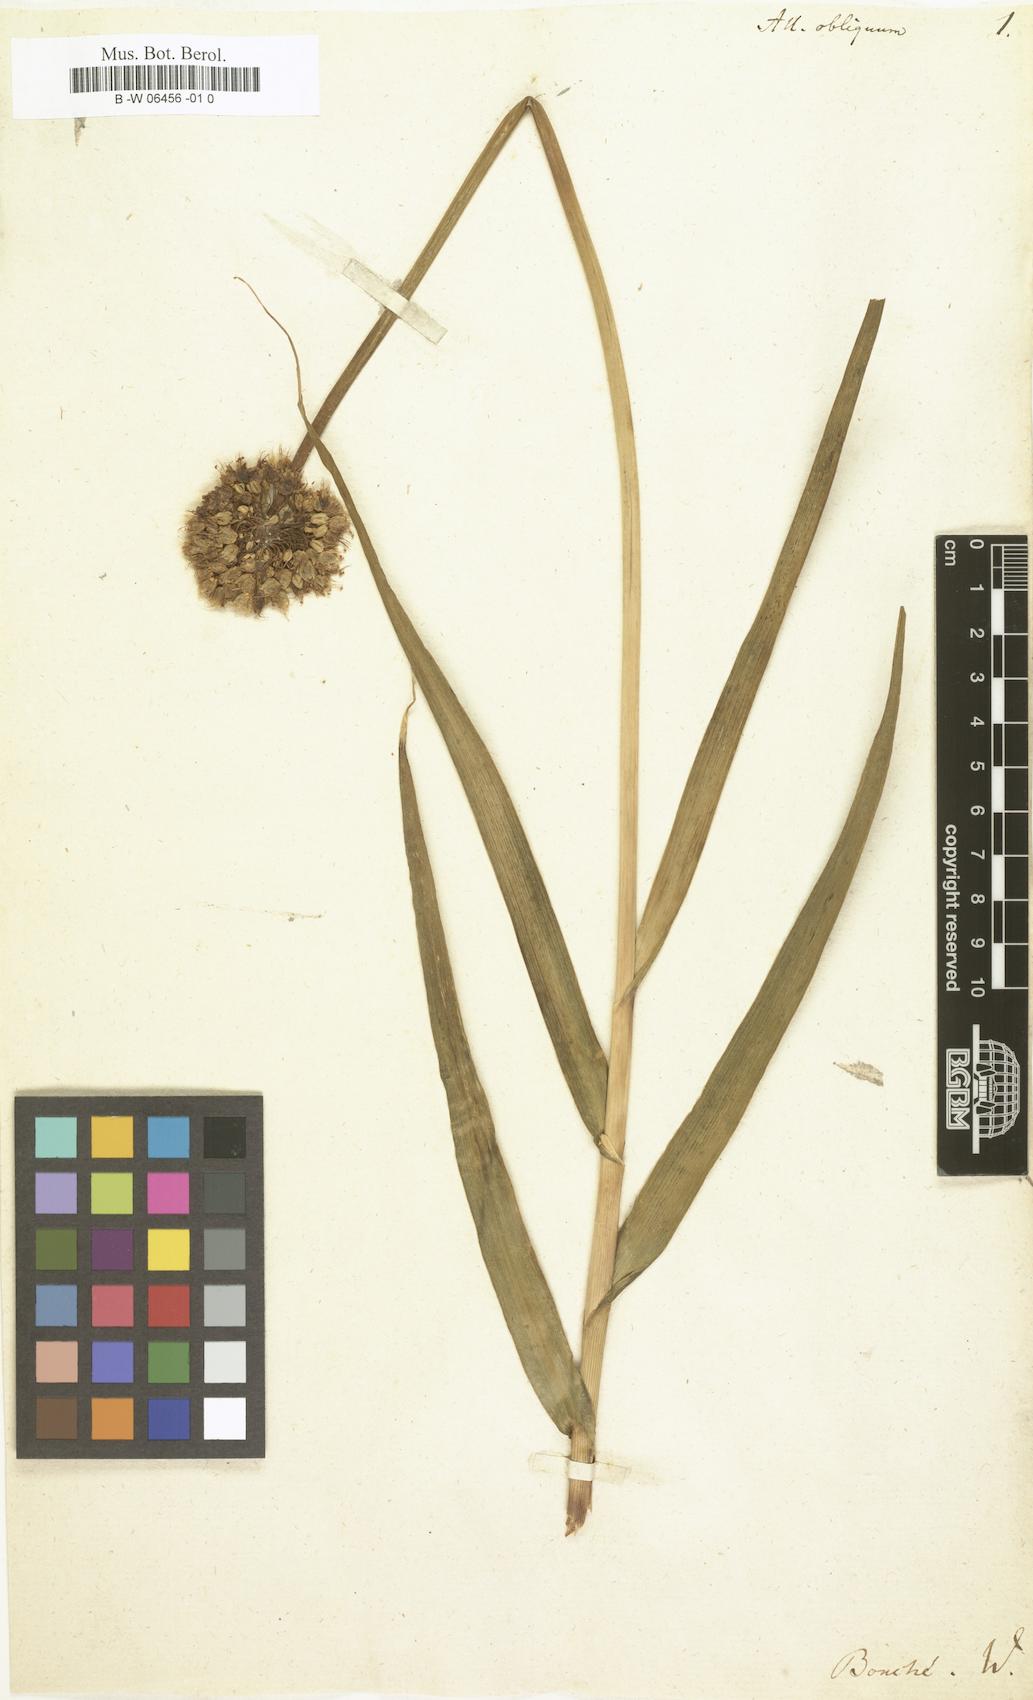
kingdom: Plantae
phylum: Tracheophyta
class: Liliopsida
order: Asparagales
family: Amaryllidaceae
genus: Allium
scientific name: Allium obliquum
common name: Oblique onion
